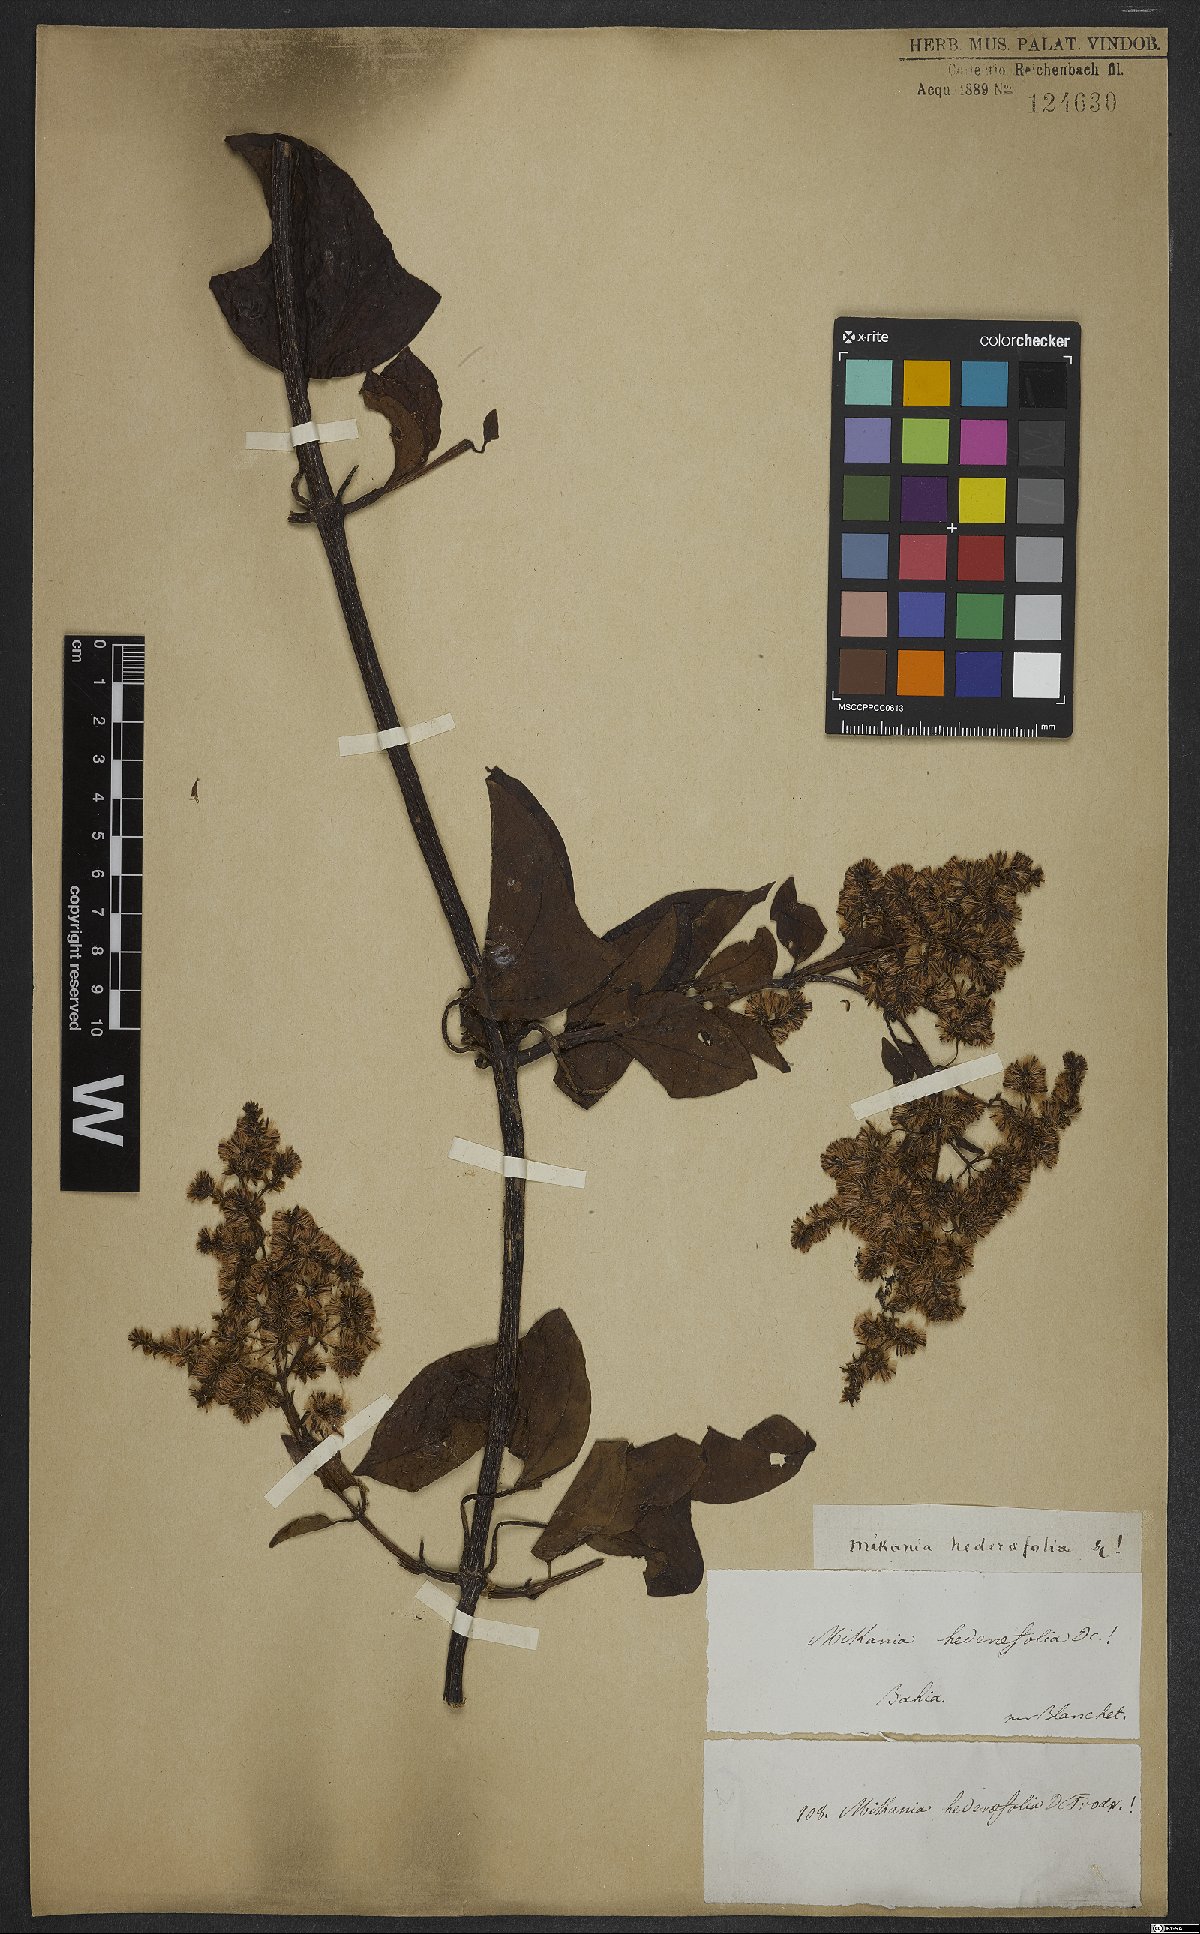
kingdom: Plantae
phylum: Tracheophyta
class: Magnoliopsida
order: Asterales
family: Asteraceae
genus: Mikania
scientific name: Mikania glomerata
